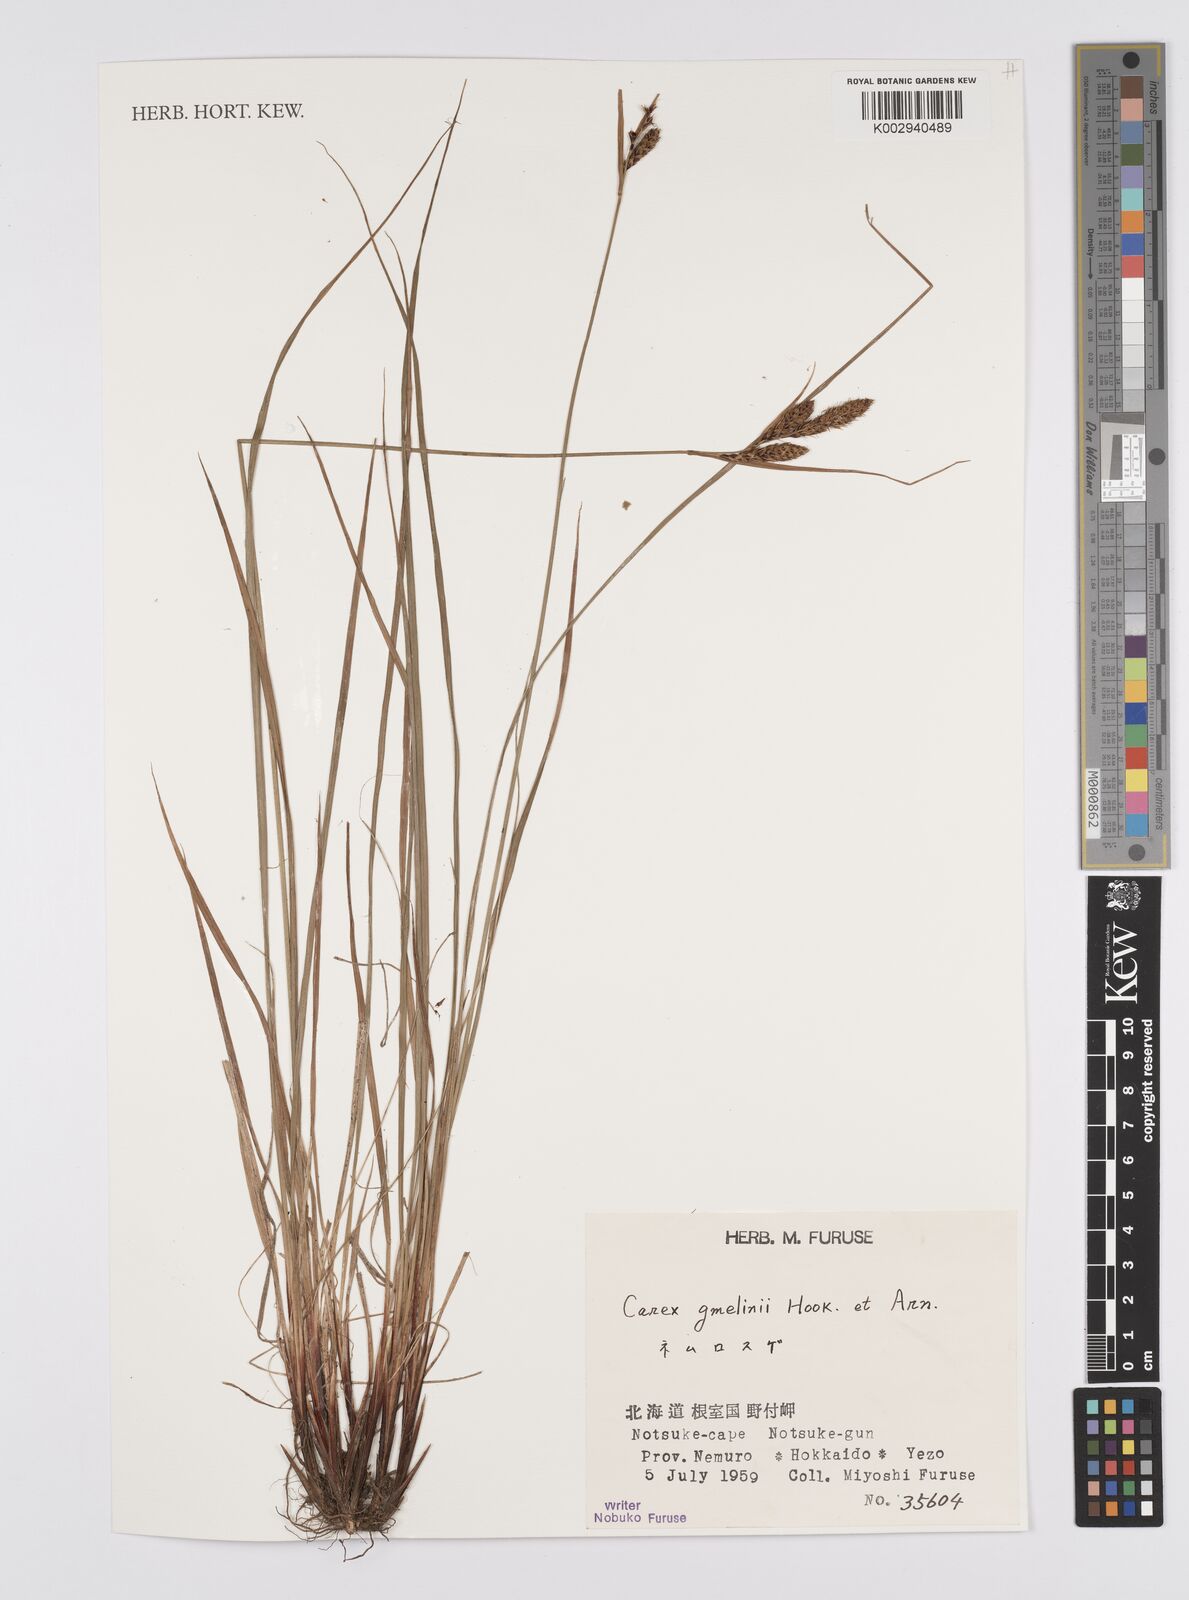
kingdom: Plantae
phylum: Tracheophyta
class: Liliopsida
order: Poales
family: Cyperaceae
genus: Carex
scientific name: Carex gmelinii
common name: Gmelin's sedge
